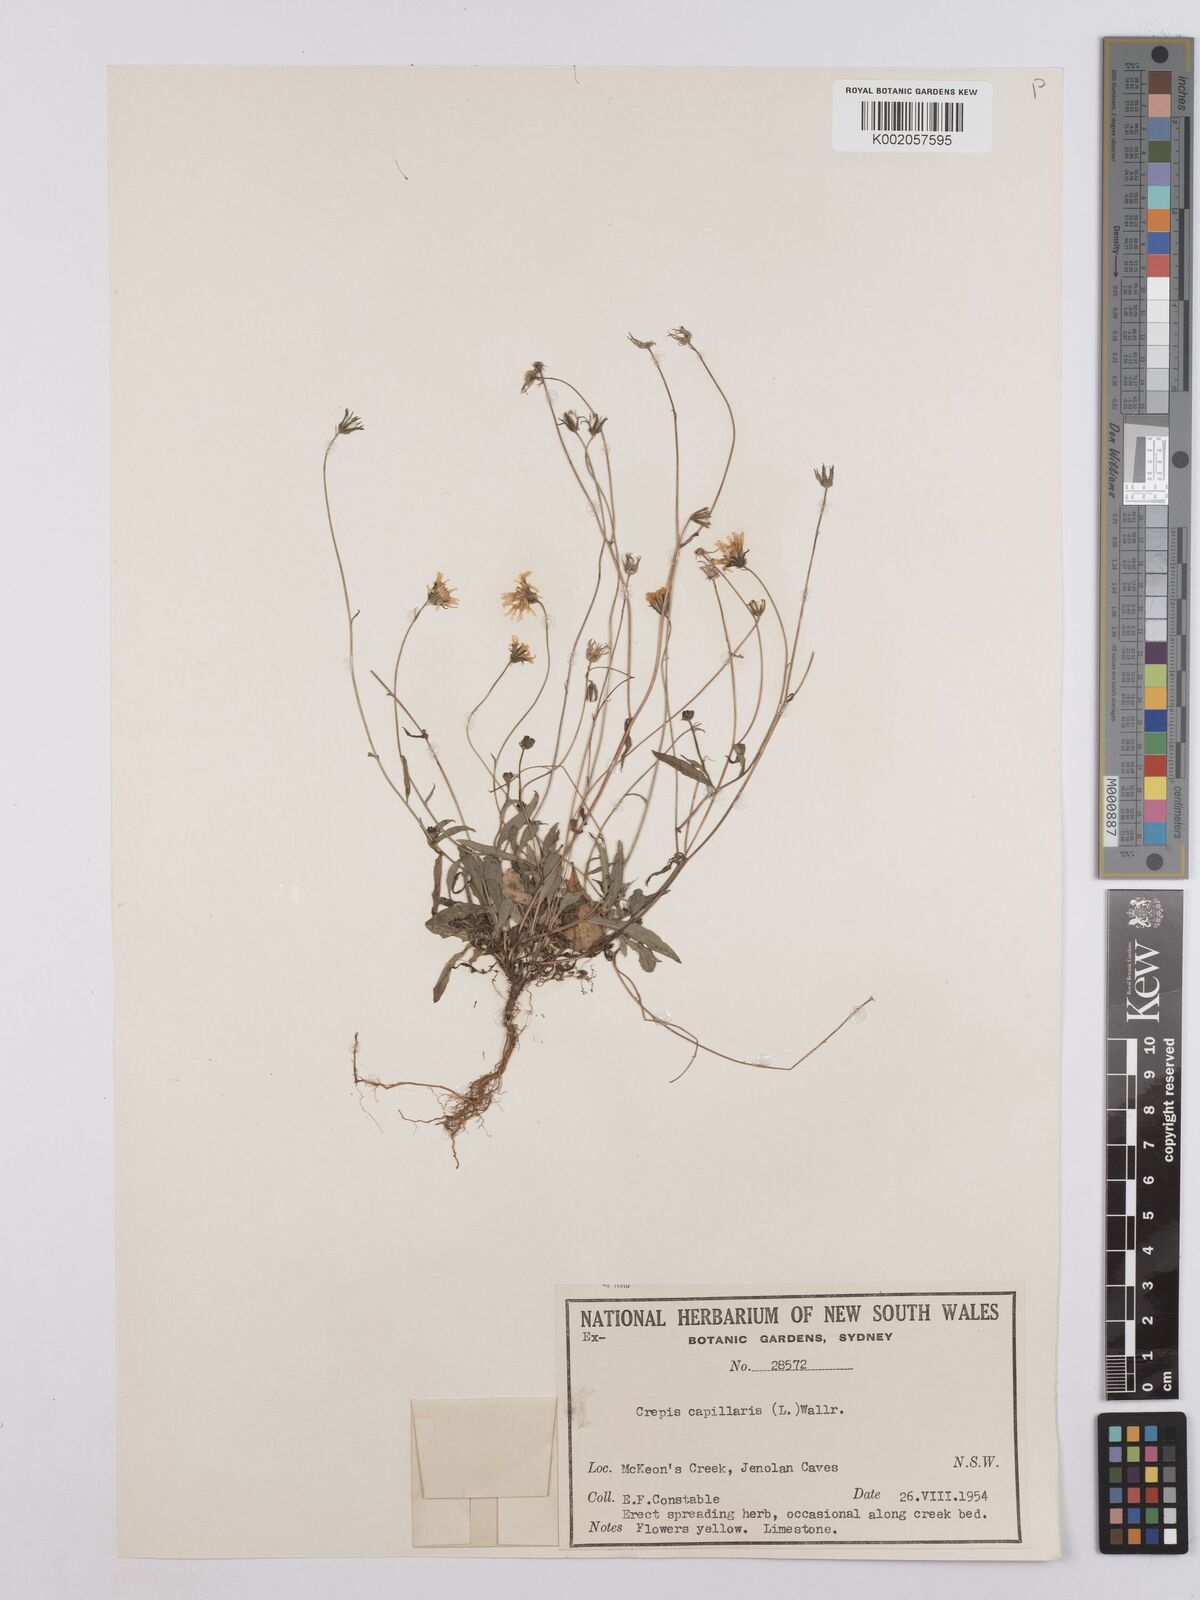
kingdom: Plantae
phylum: Tracheophyta
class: Magnoliopsida
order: Asterales
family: Asteraceae
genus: Crepis
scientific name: Crepis capillaris
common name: Smooth hawksbeard
